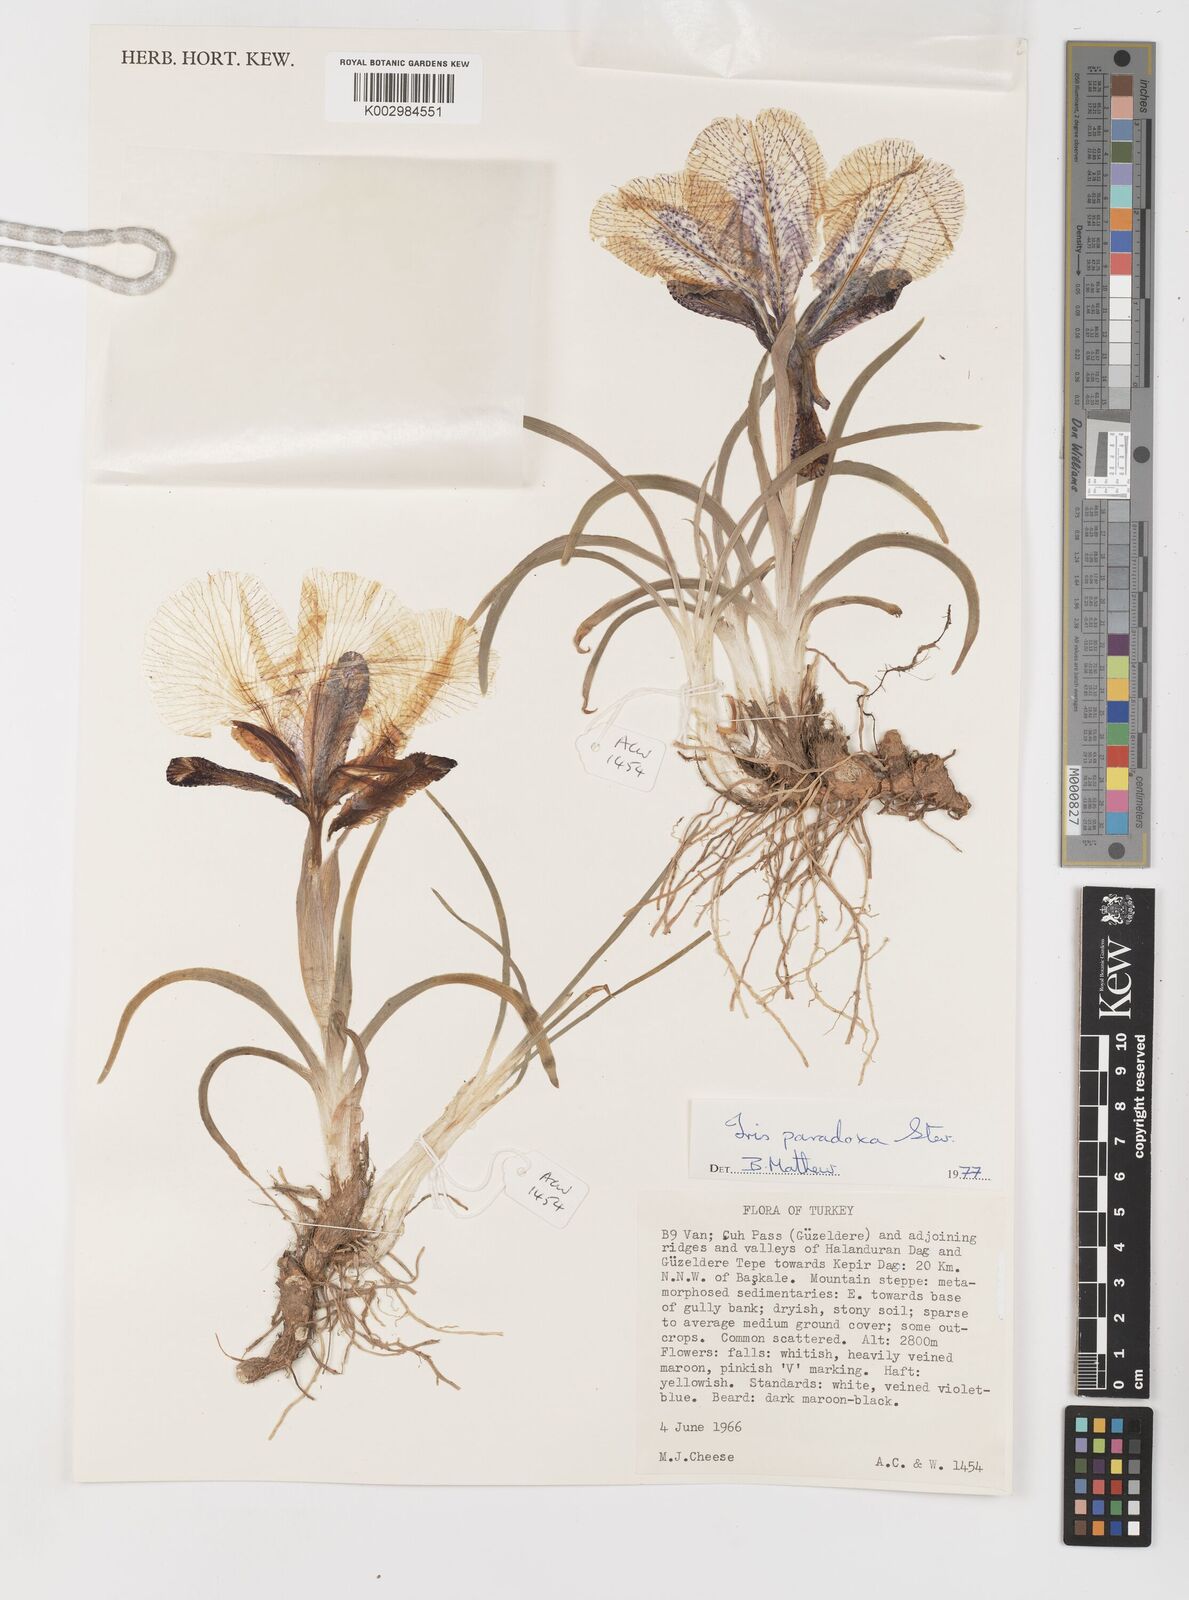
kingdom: Plantae
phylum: Tracheophyta
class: Liliopsida
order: Asparagales
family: Iridaceae
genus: Iris
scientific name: Iris paradoxa
